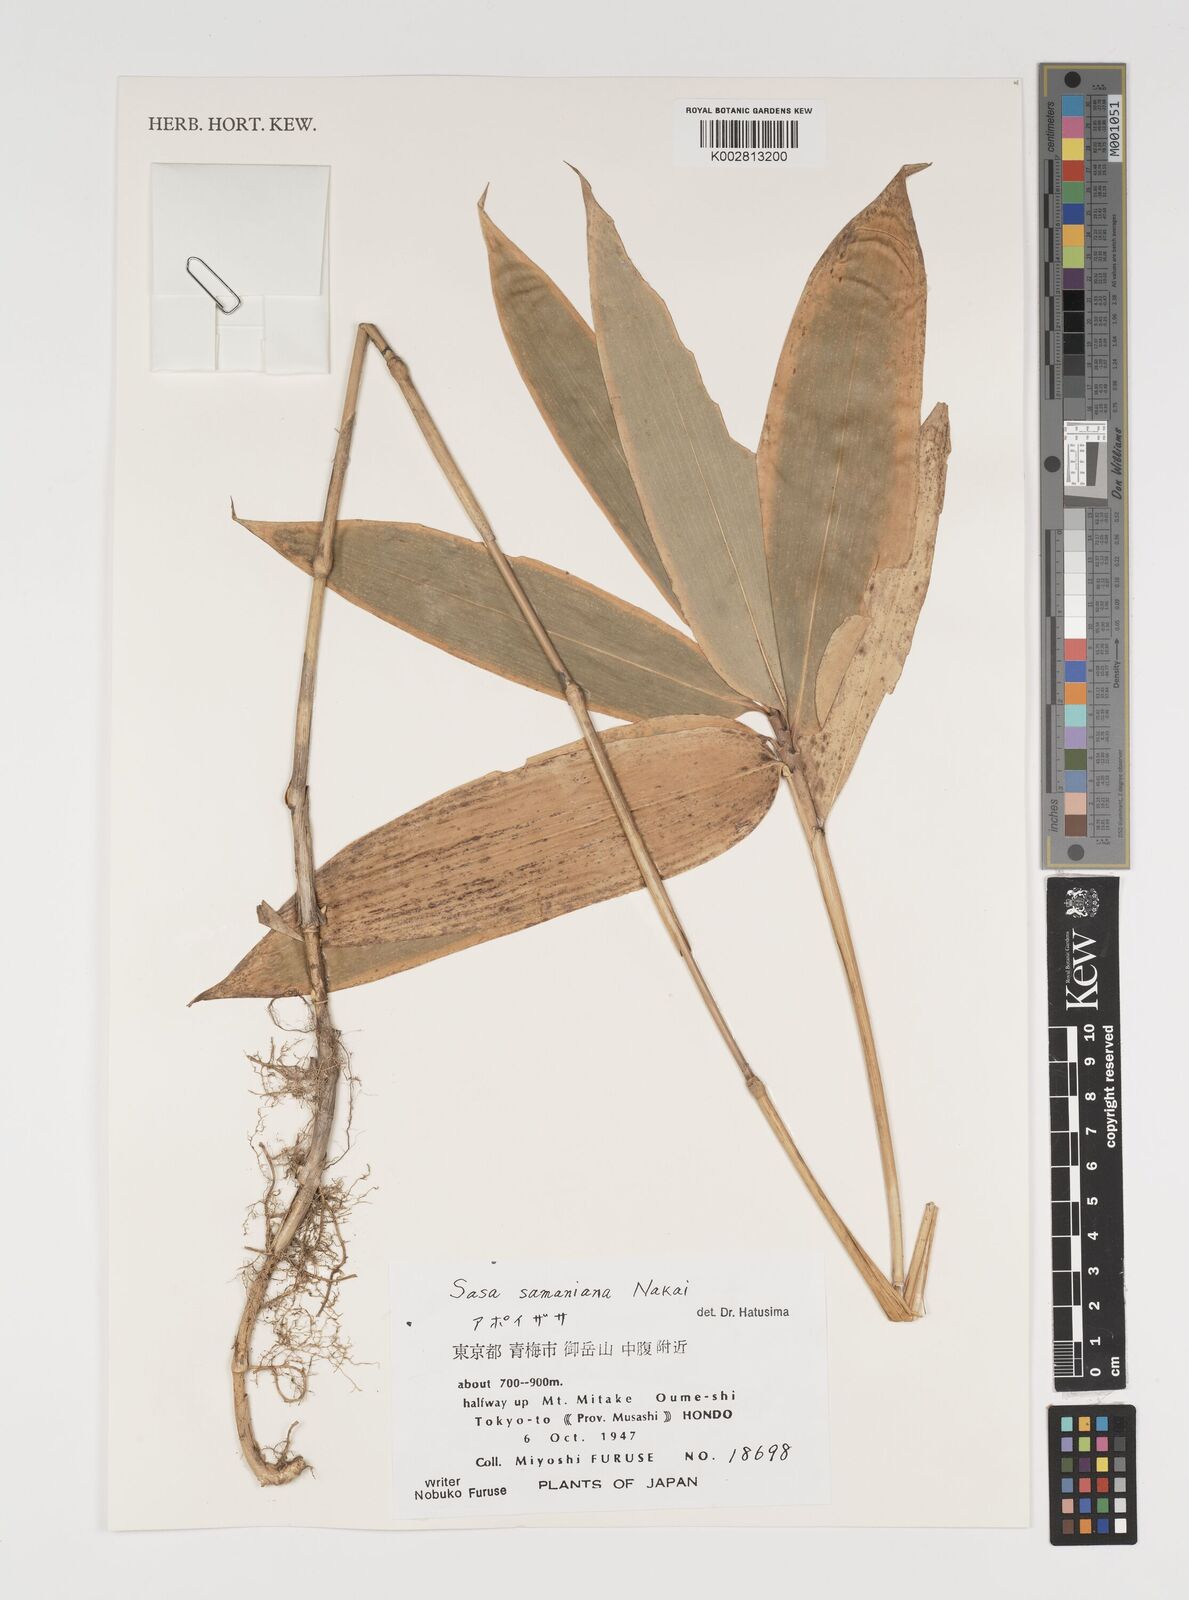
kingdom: Plantae
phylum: Tracheophyta
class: Liliopsida
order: Poales
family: Poaceae
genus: Sasa
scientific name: Sasa samaniana
